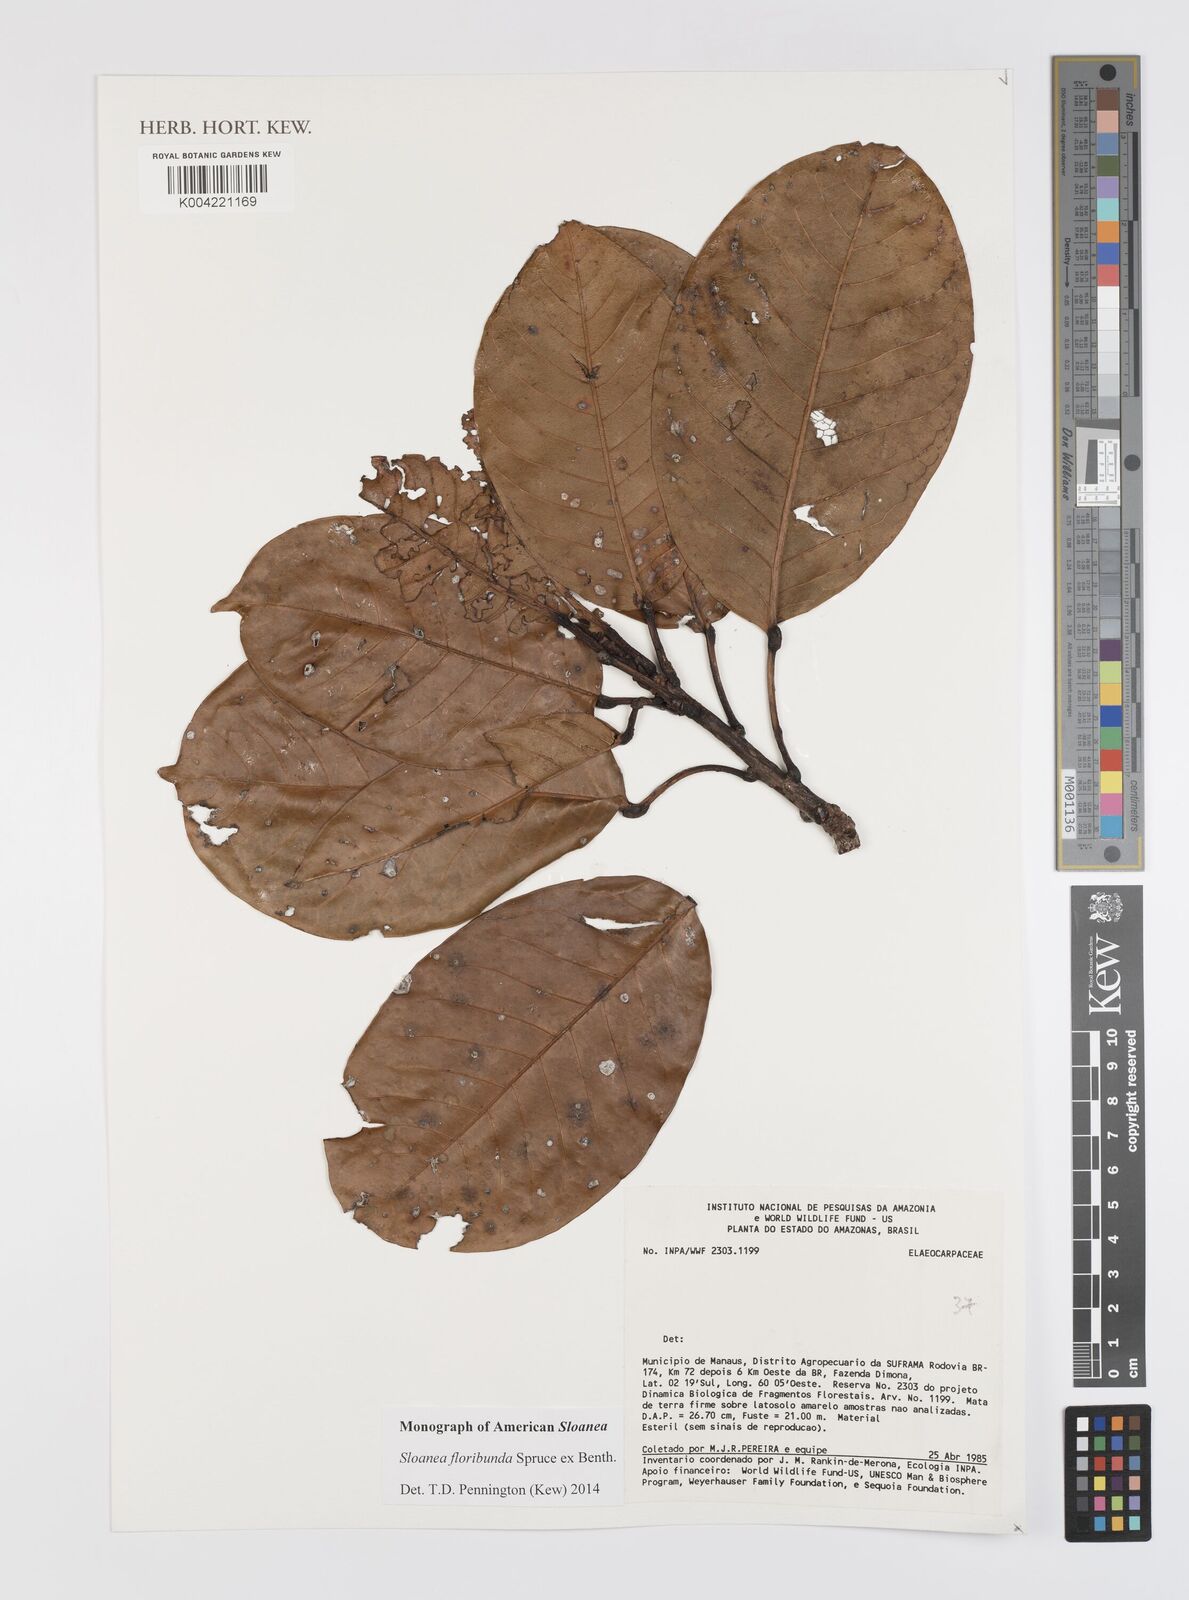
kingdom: Plantae
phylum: Tracheophyta
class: Magnoliopsida
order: Oxalidales
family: Elaeocarpaceae
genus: Sloanea
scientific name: Sloanea floribunda
